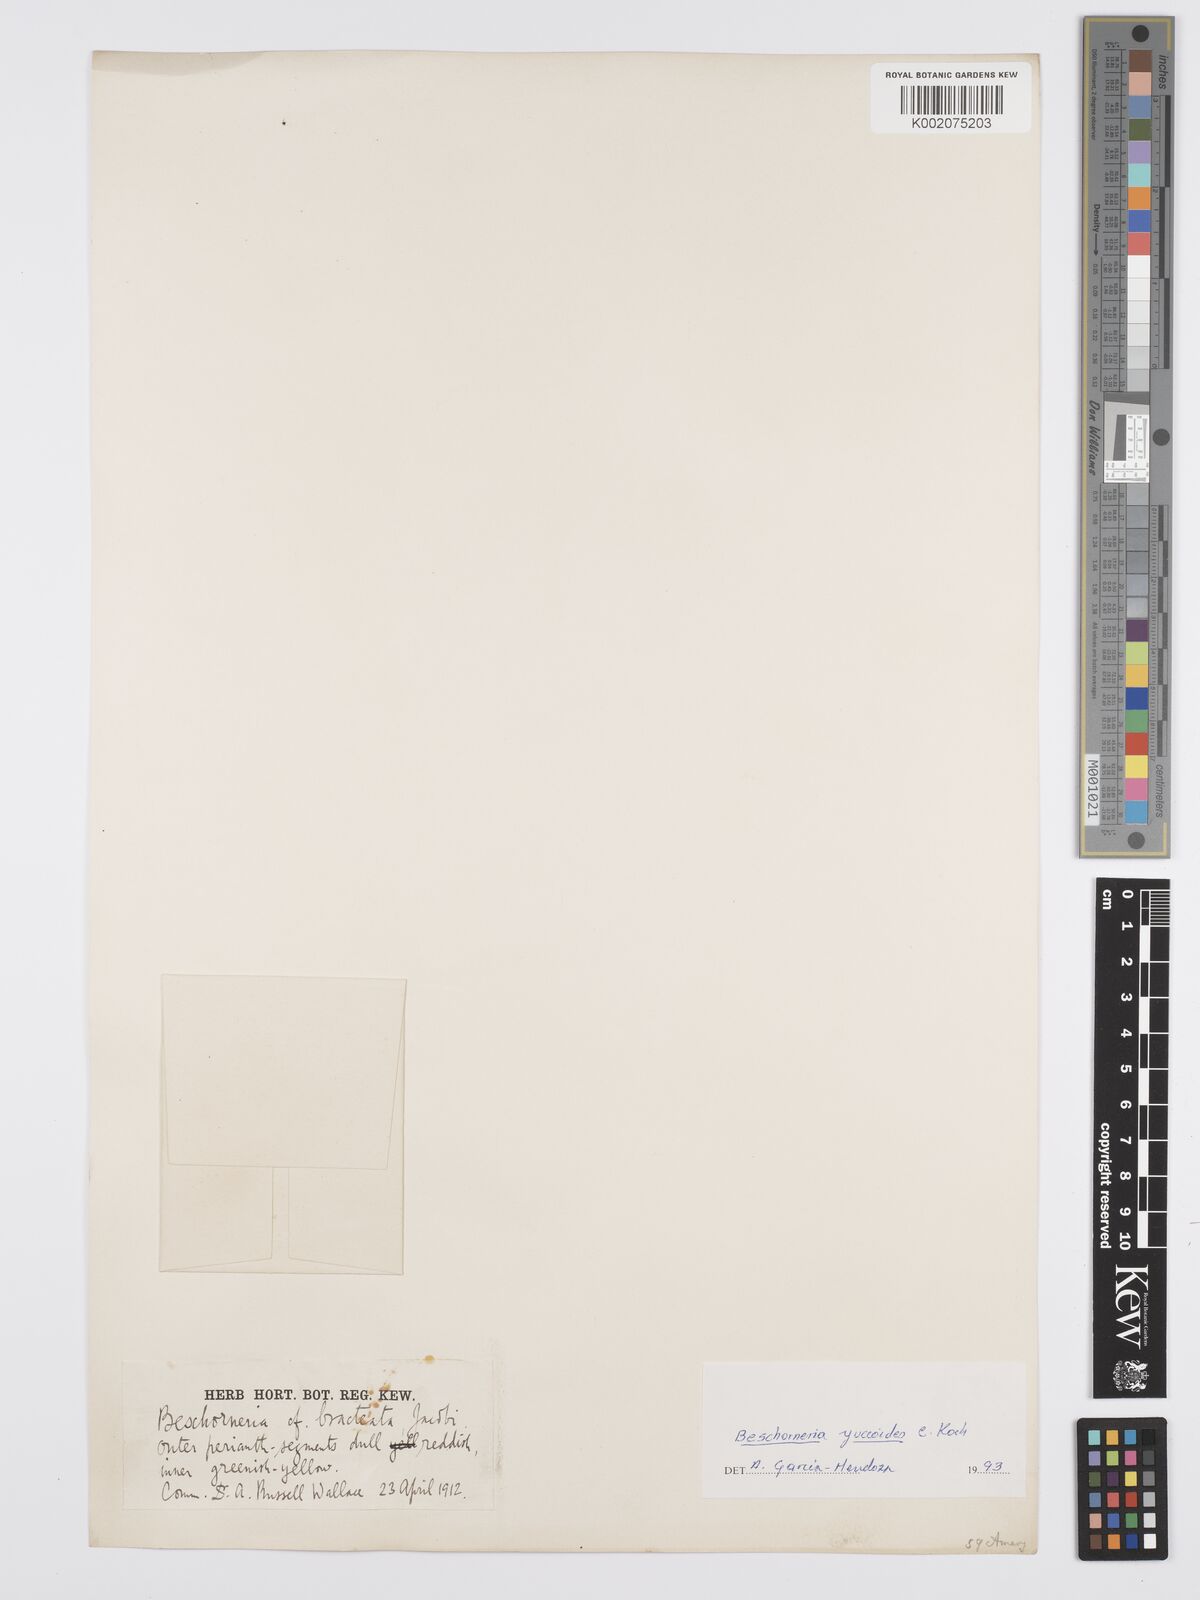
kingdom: Plantae
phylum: Tracheophyta
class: Liliopsida
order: Asparagales
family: Asparagaceae
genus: Beschorneria
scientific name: Beschorneria yuccoides
